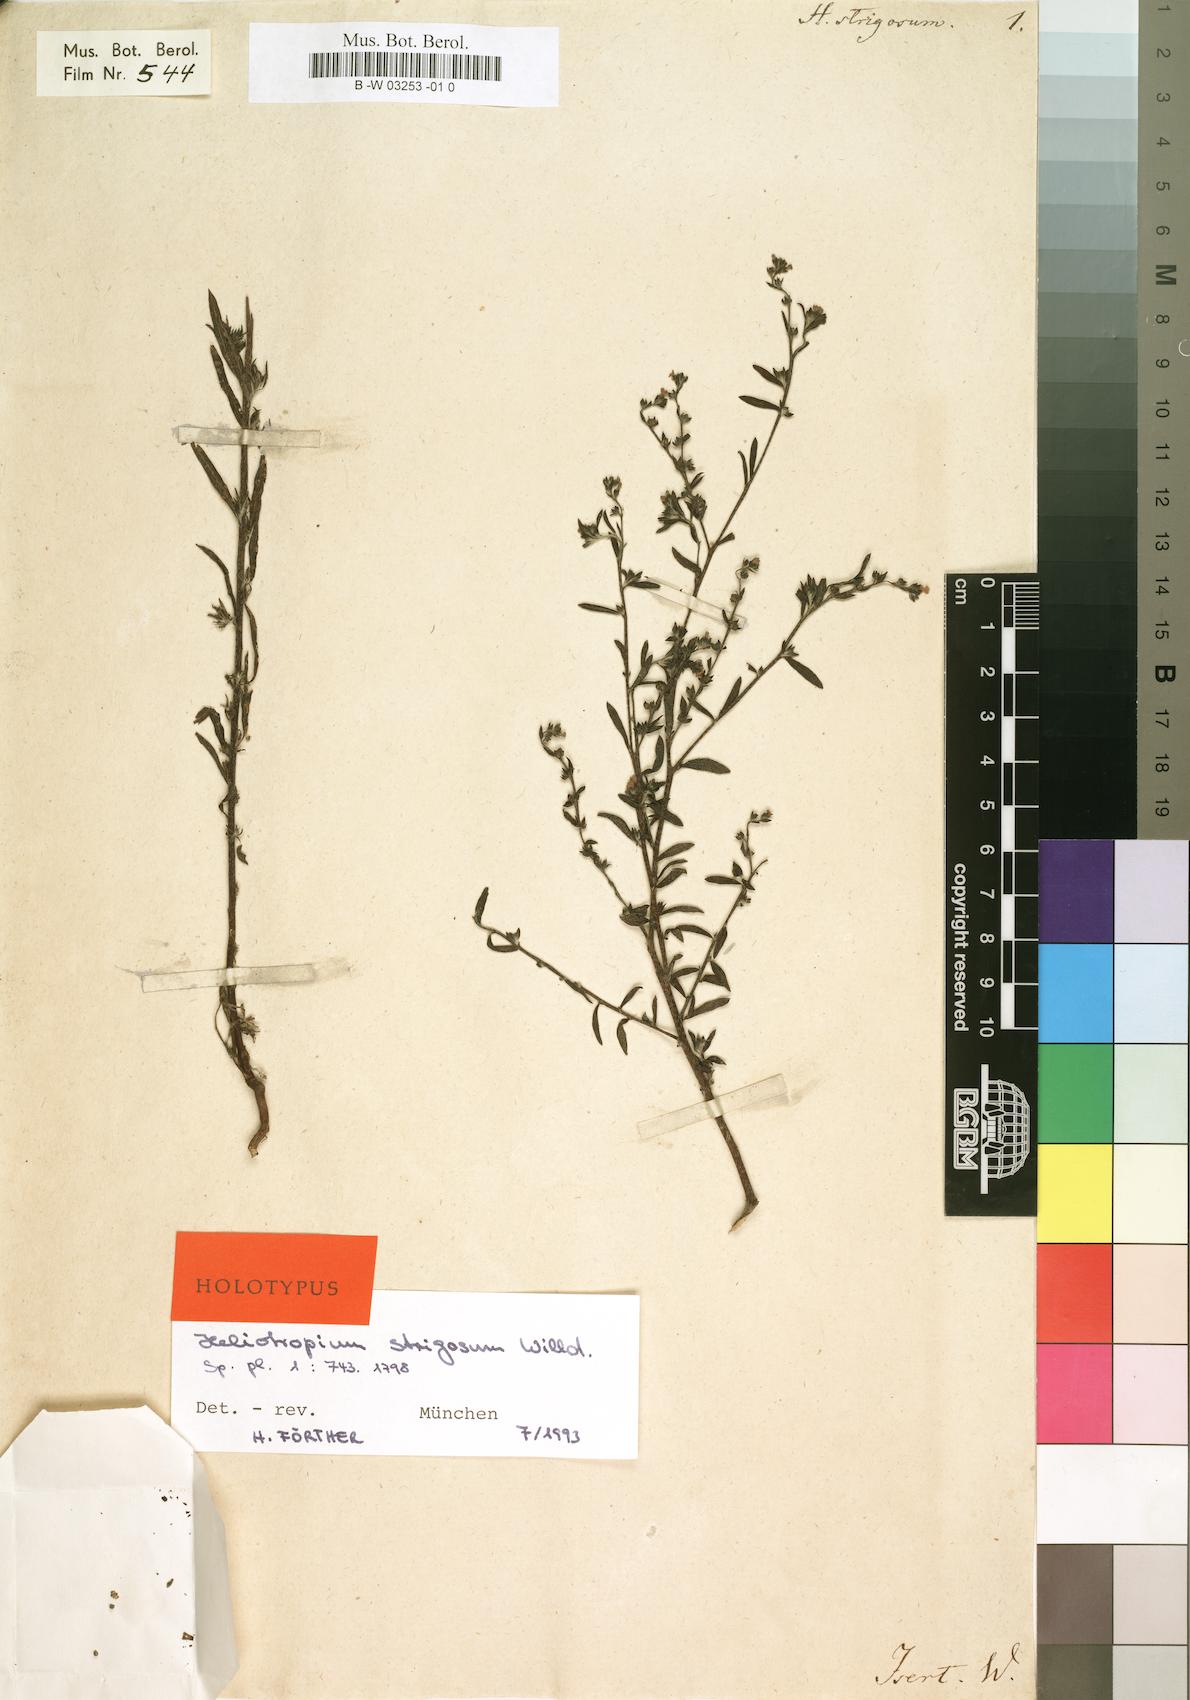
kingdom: Plantae
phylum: Tracheophyta
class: Magnoliopsida
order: Boraginales
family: Heliotropiaceae
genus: Euploca
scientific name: Euploca strigosa
